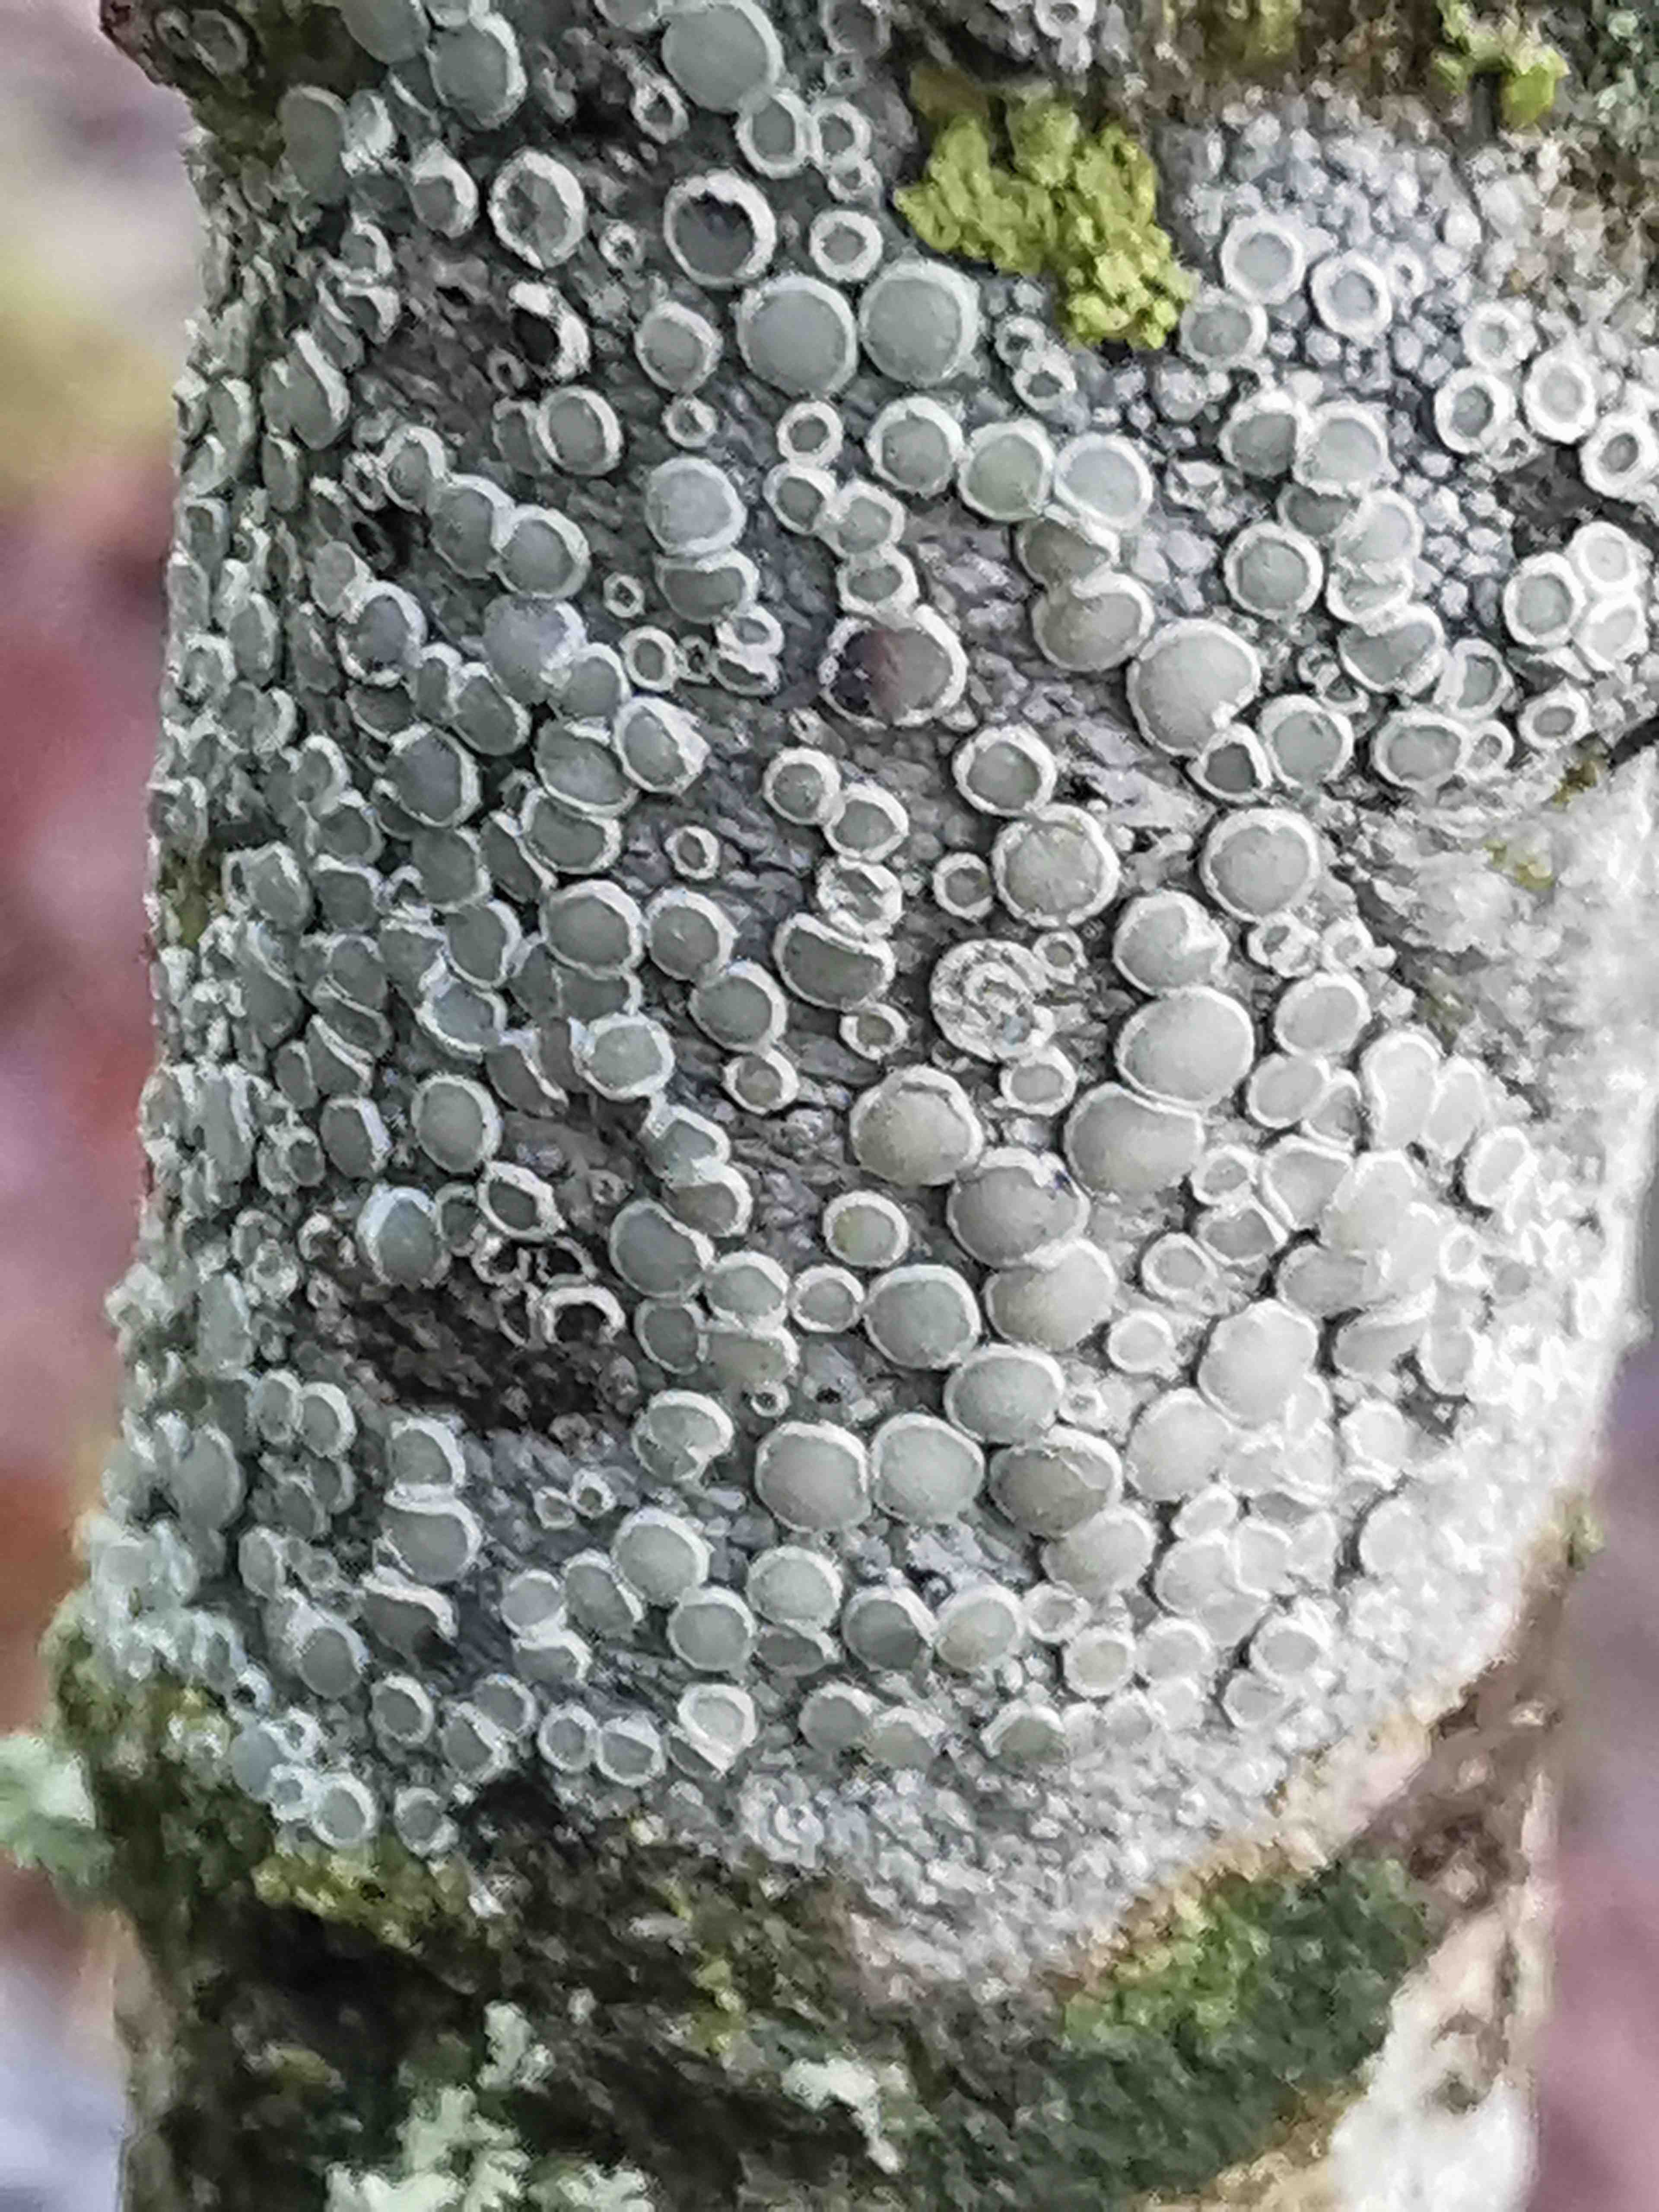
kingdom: Fungi
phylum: Ascomycota
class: Lecanoromycetes
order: Lecanorales
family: Lecanoraceae
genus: Lecanora
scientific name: Lecanora
